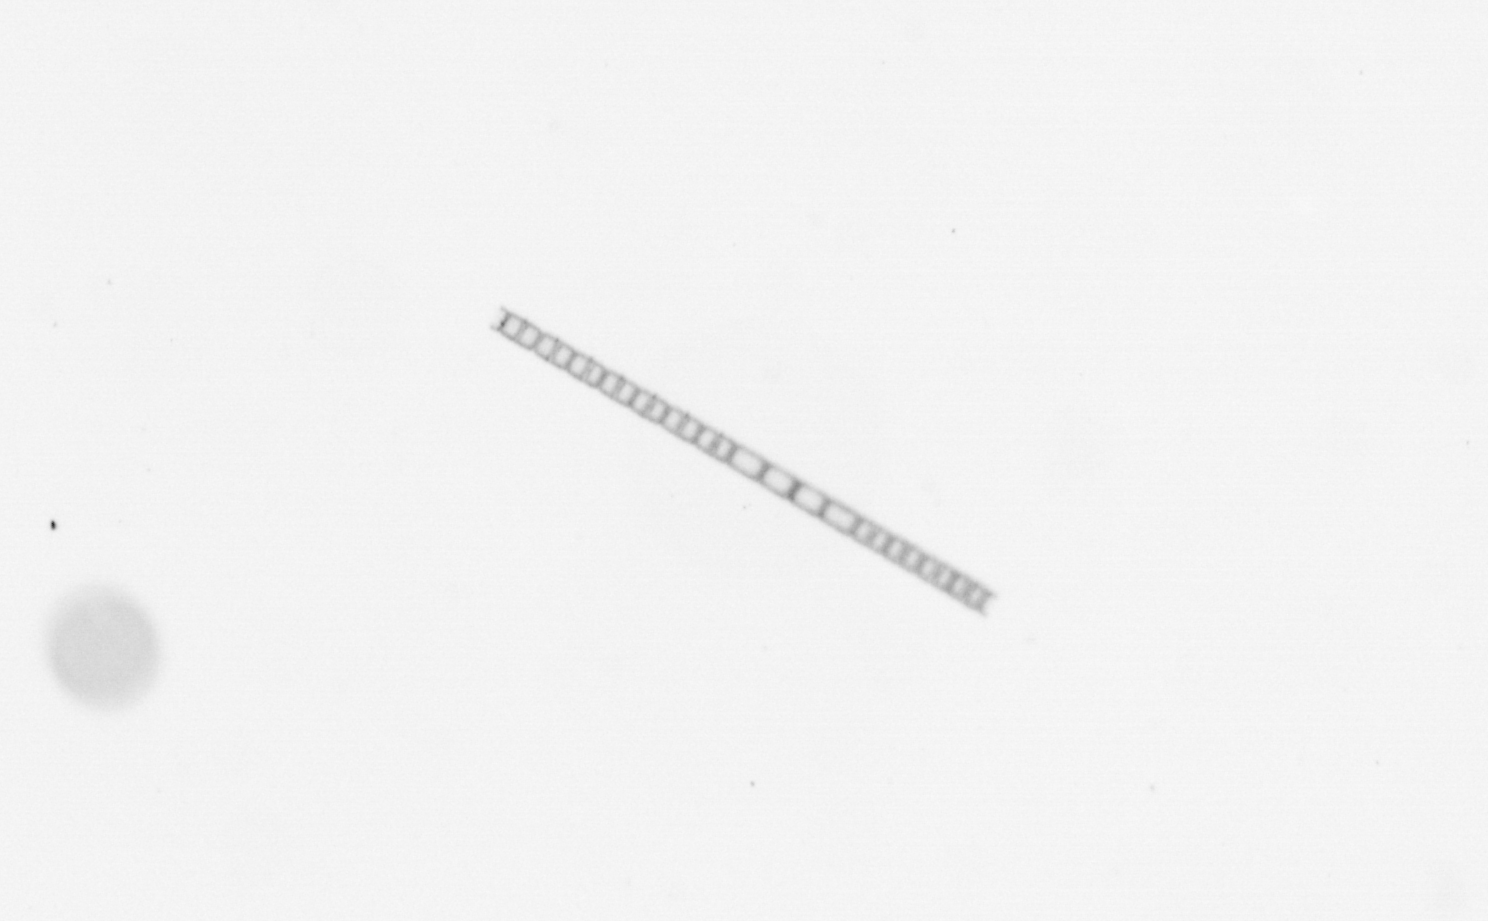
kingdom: Chromista
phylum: Ochrophyta
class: Bacillariophyceae
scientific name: Bacillariophyceae
